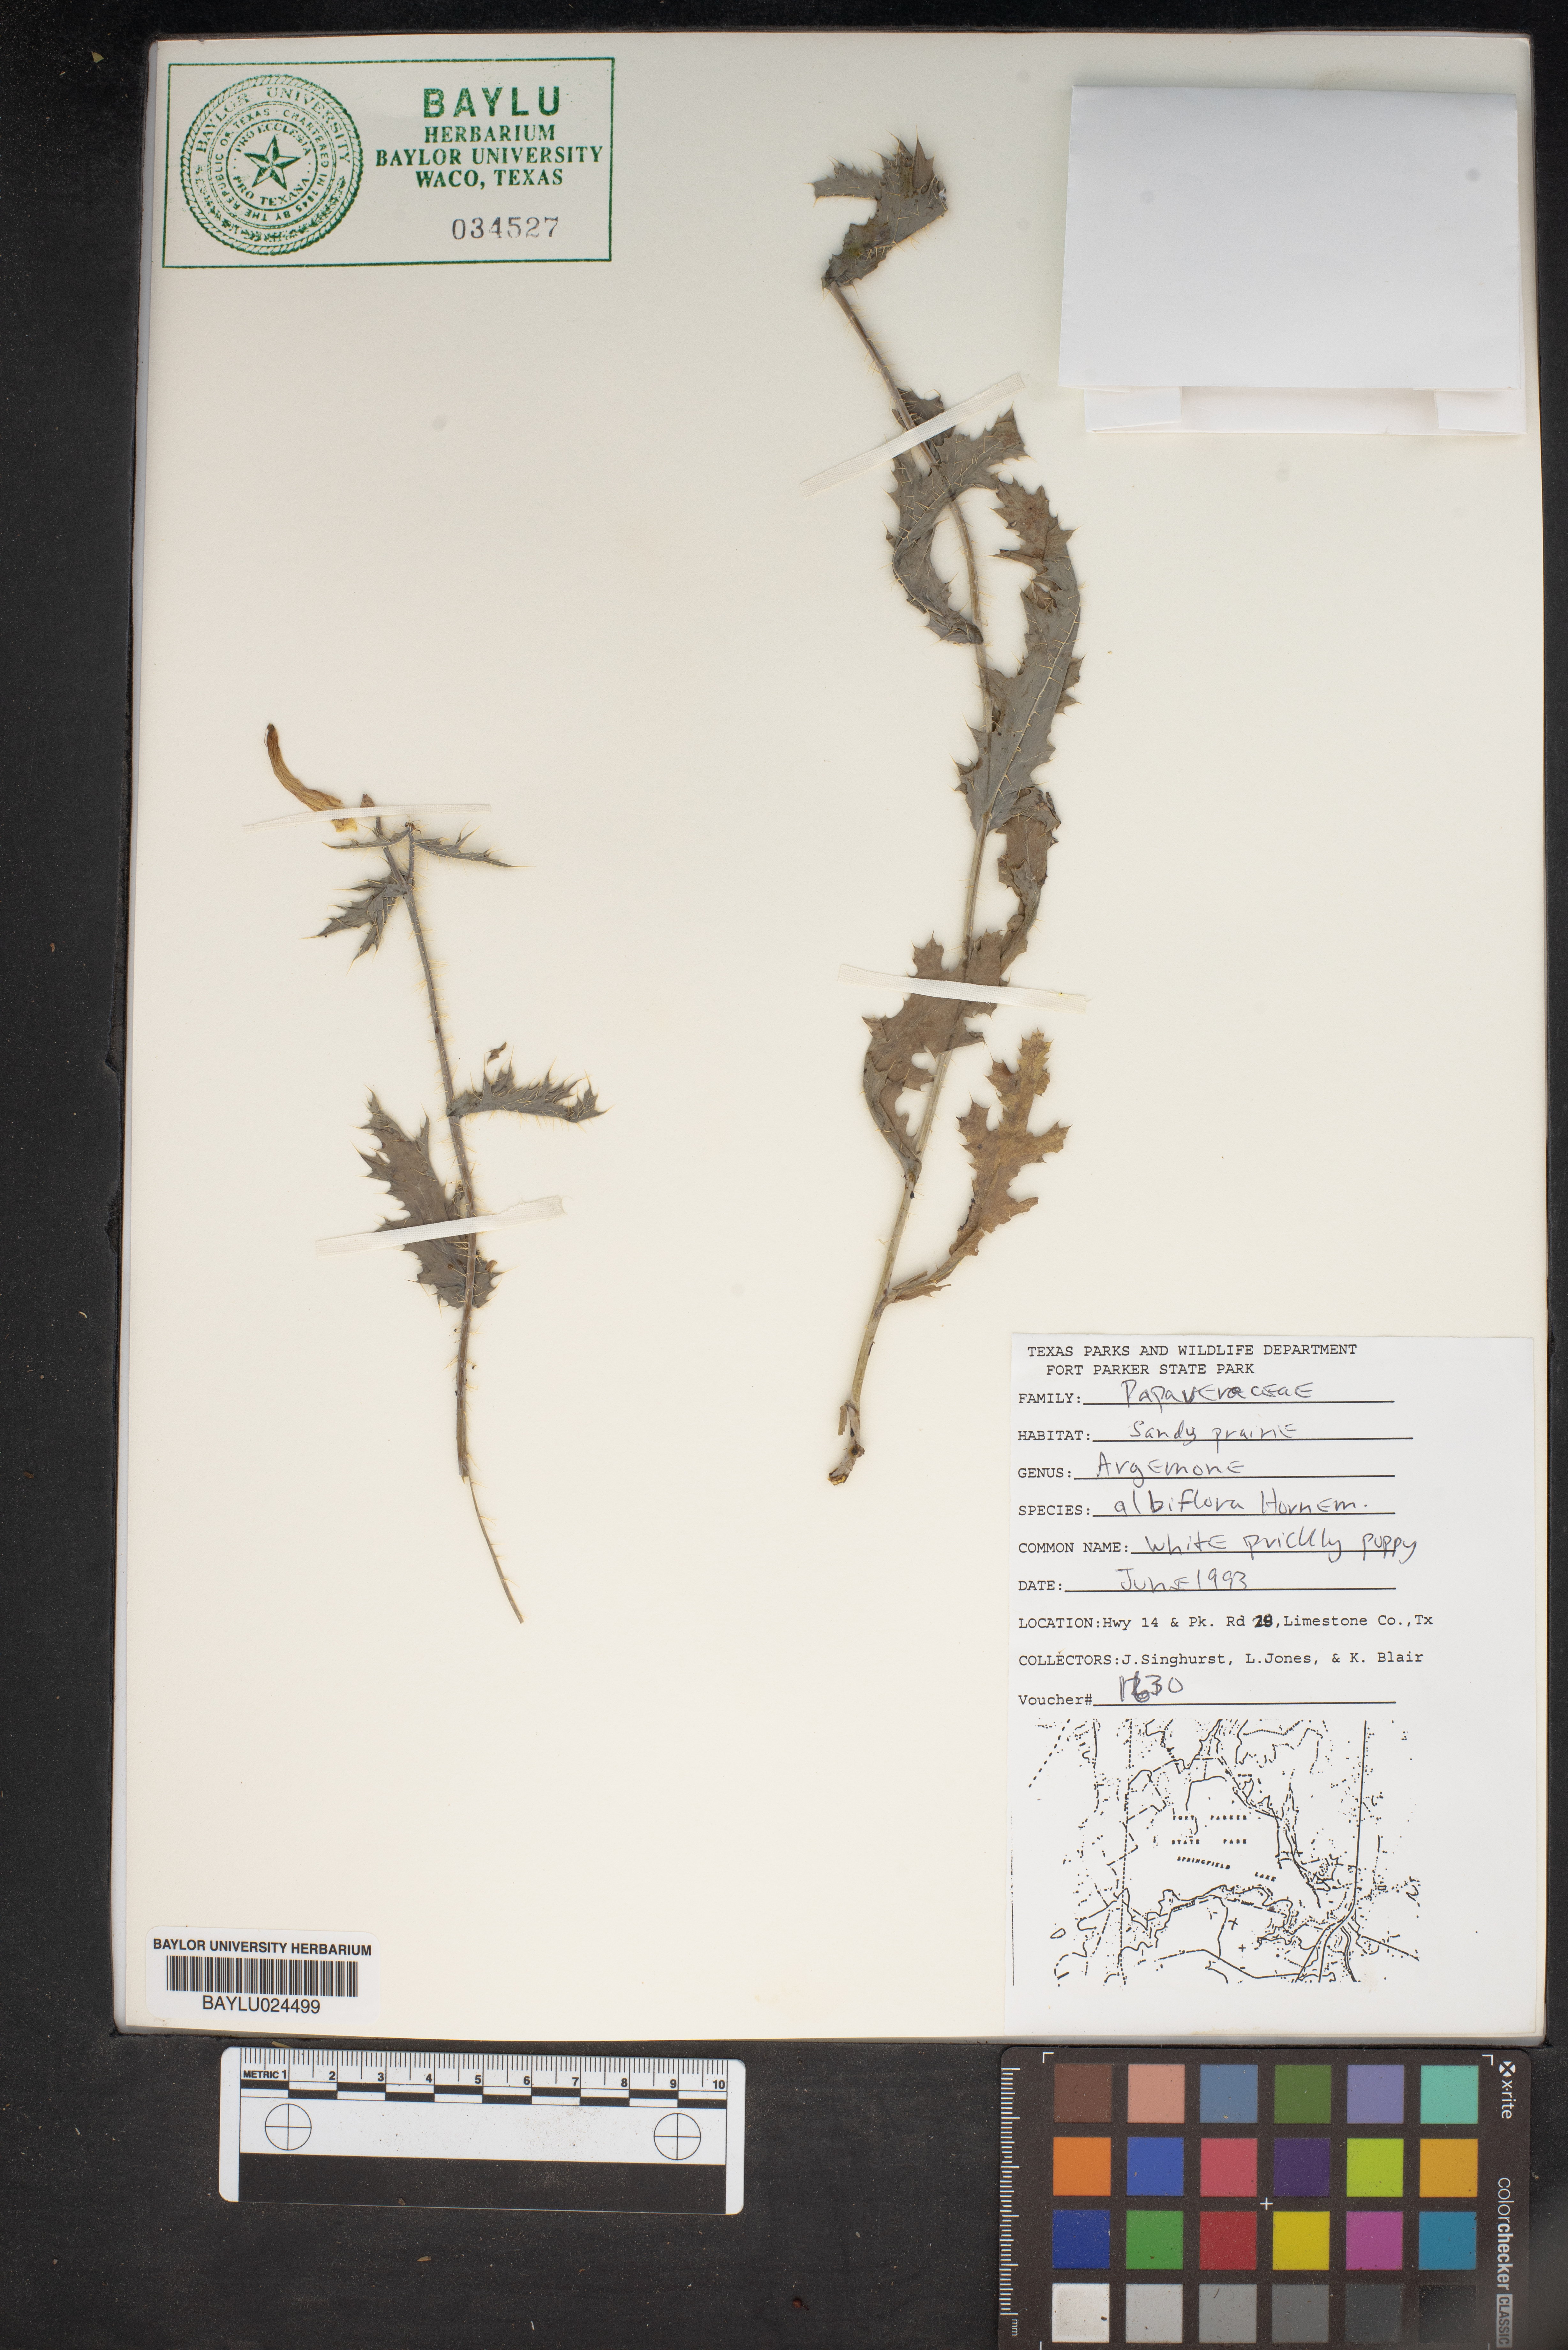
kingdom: Plantae
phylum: Tracheophyta
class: Magnoliopsida
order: Ranunculales
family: Papaveraceae
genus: Argemone
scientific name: Argemone albiflora
